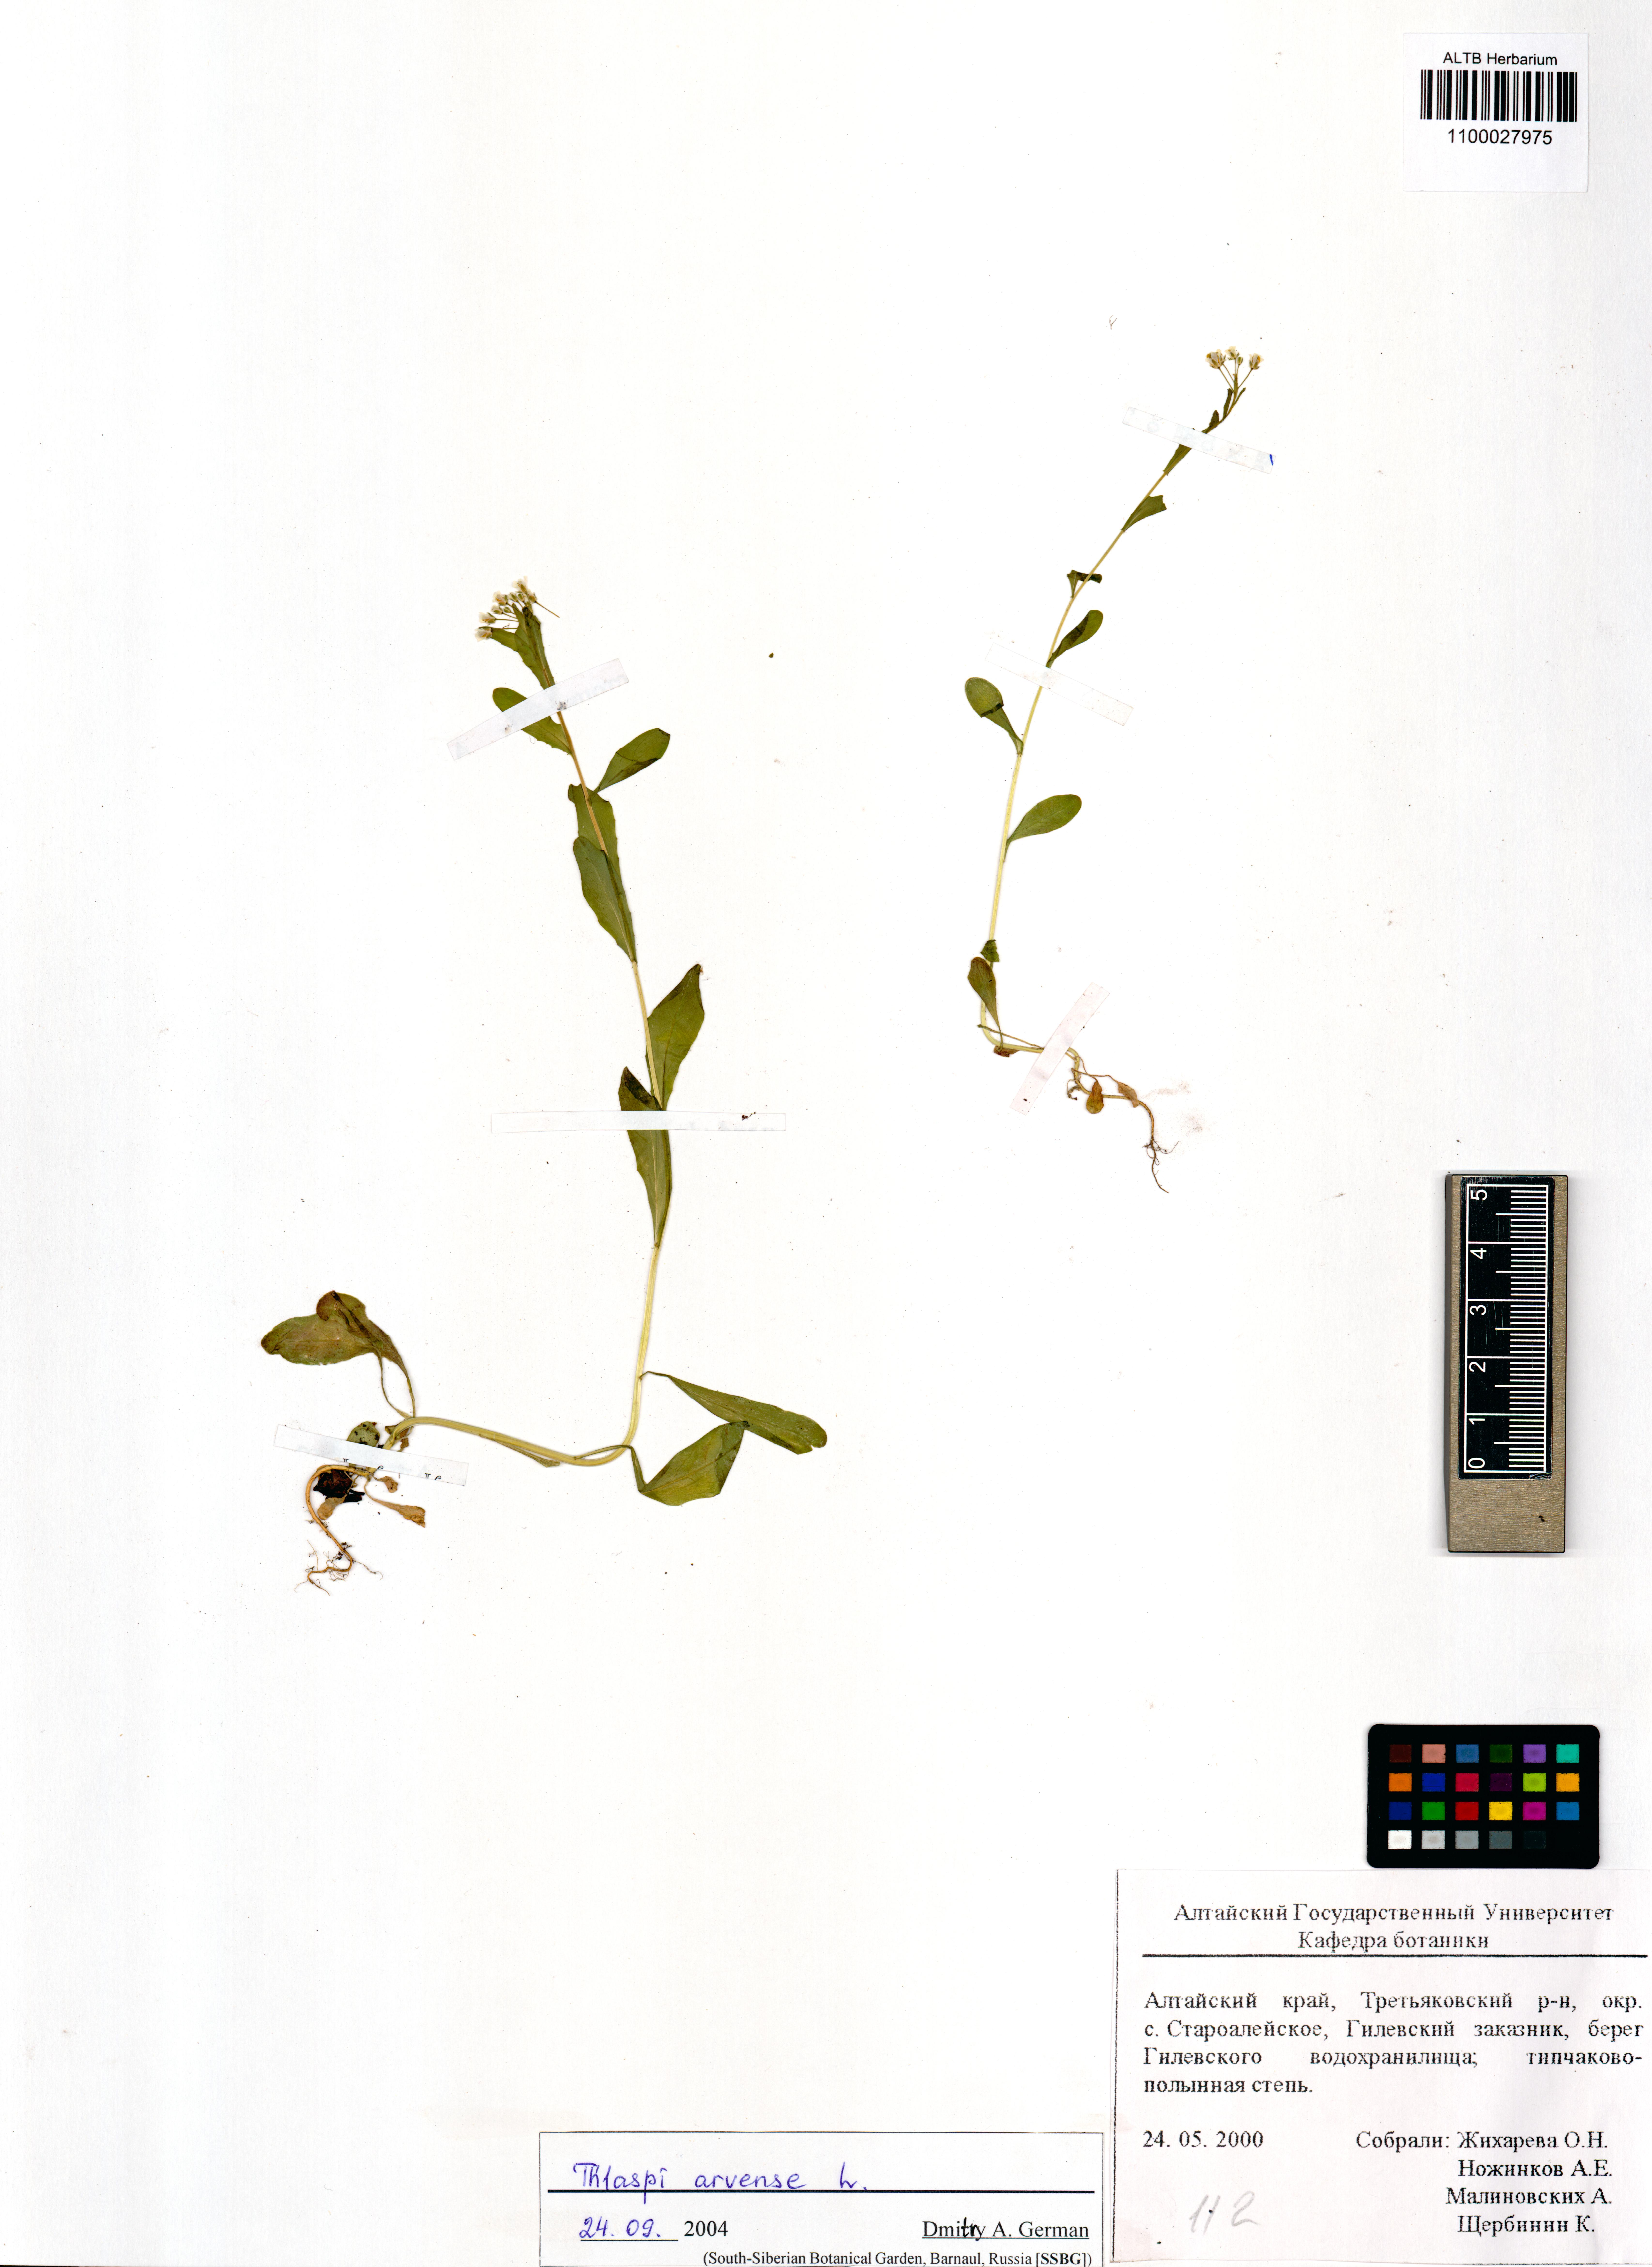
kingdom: Plantae
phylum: Tracheophyta
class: Magnoliopsida
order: Brassicales
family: Brassicaceae
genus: Thlaspi
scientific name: Thlaspi arvense
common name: Field pennycress
